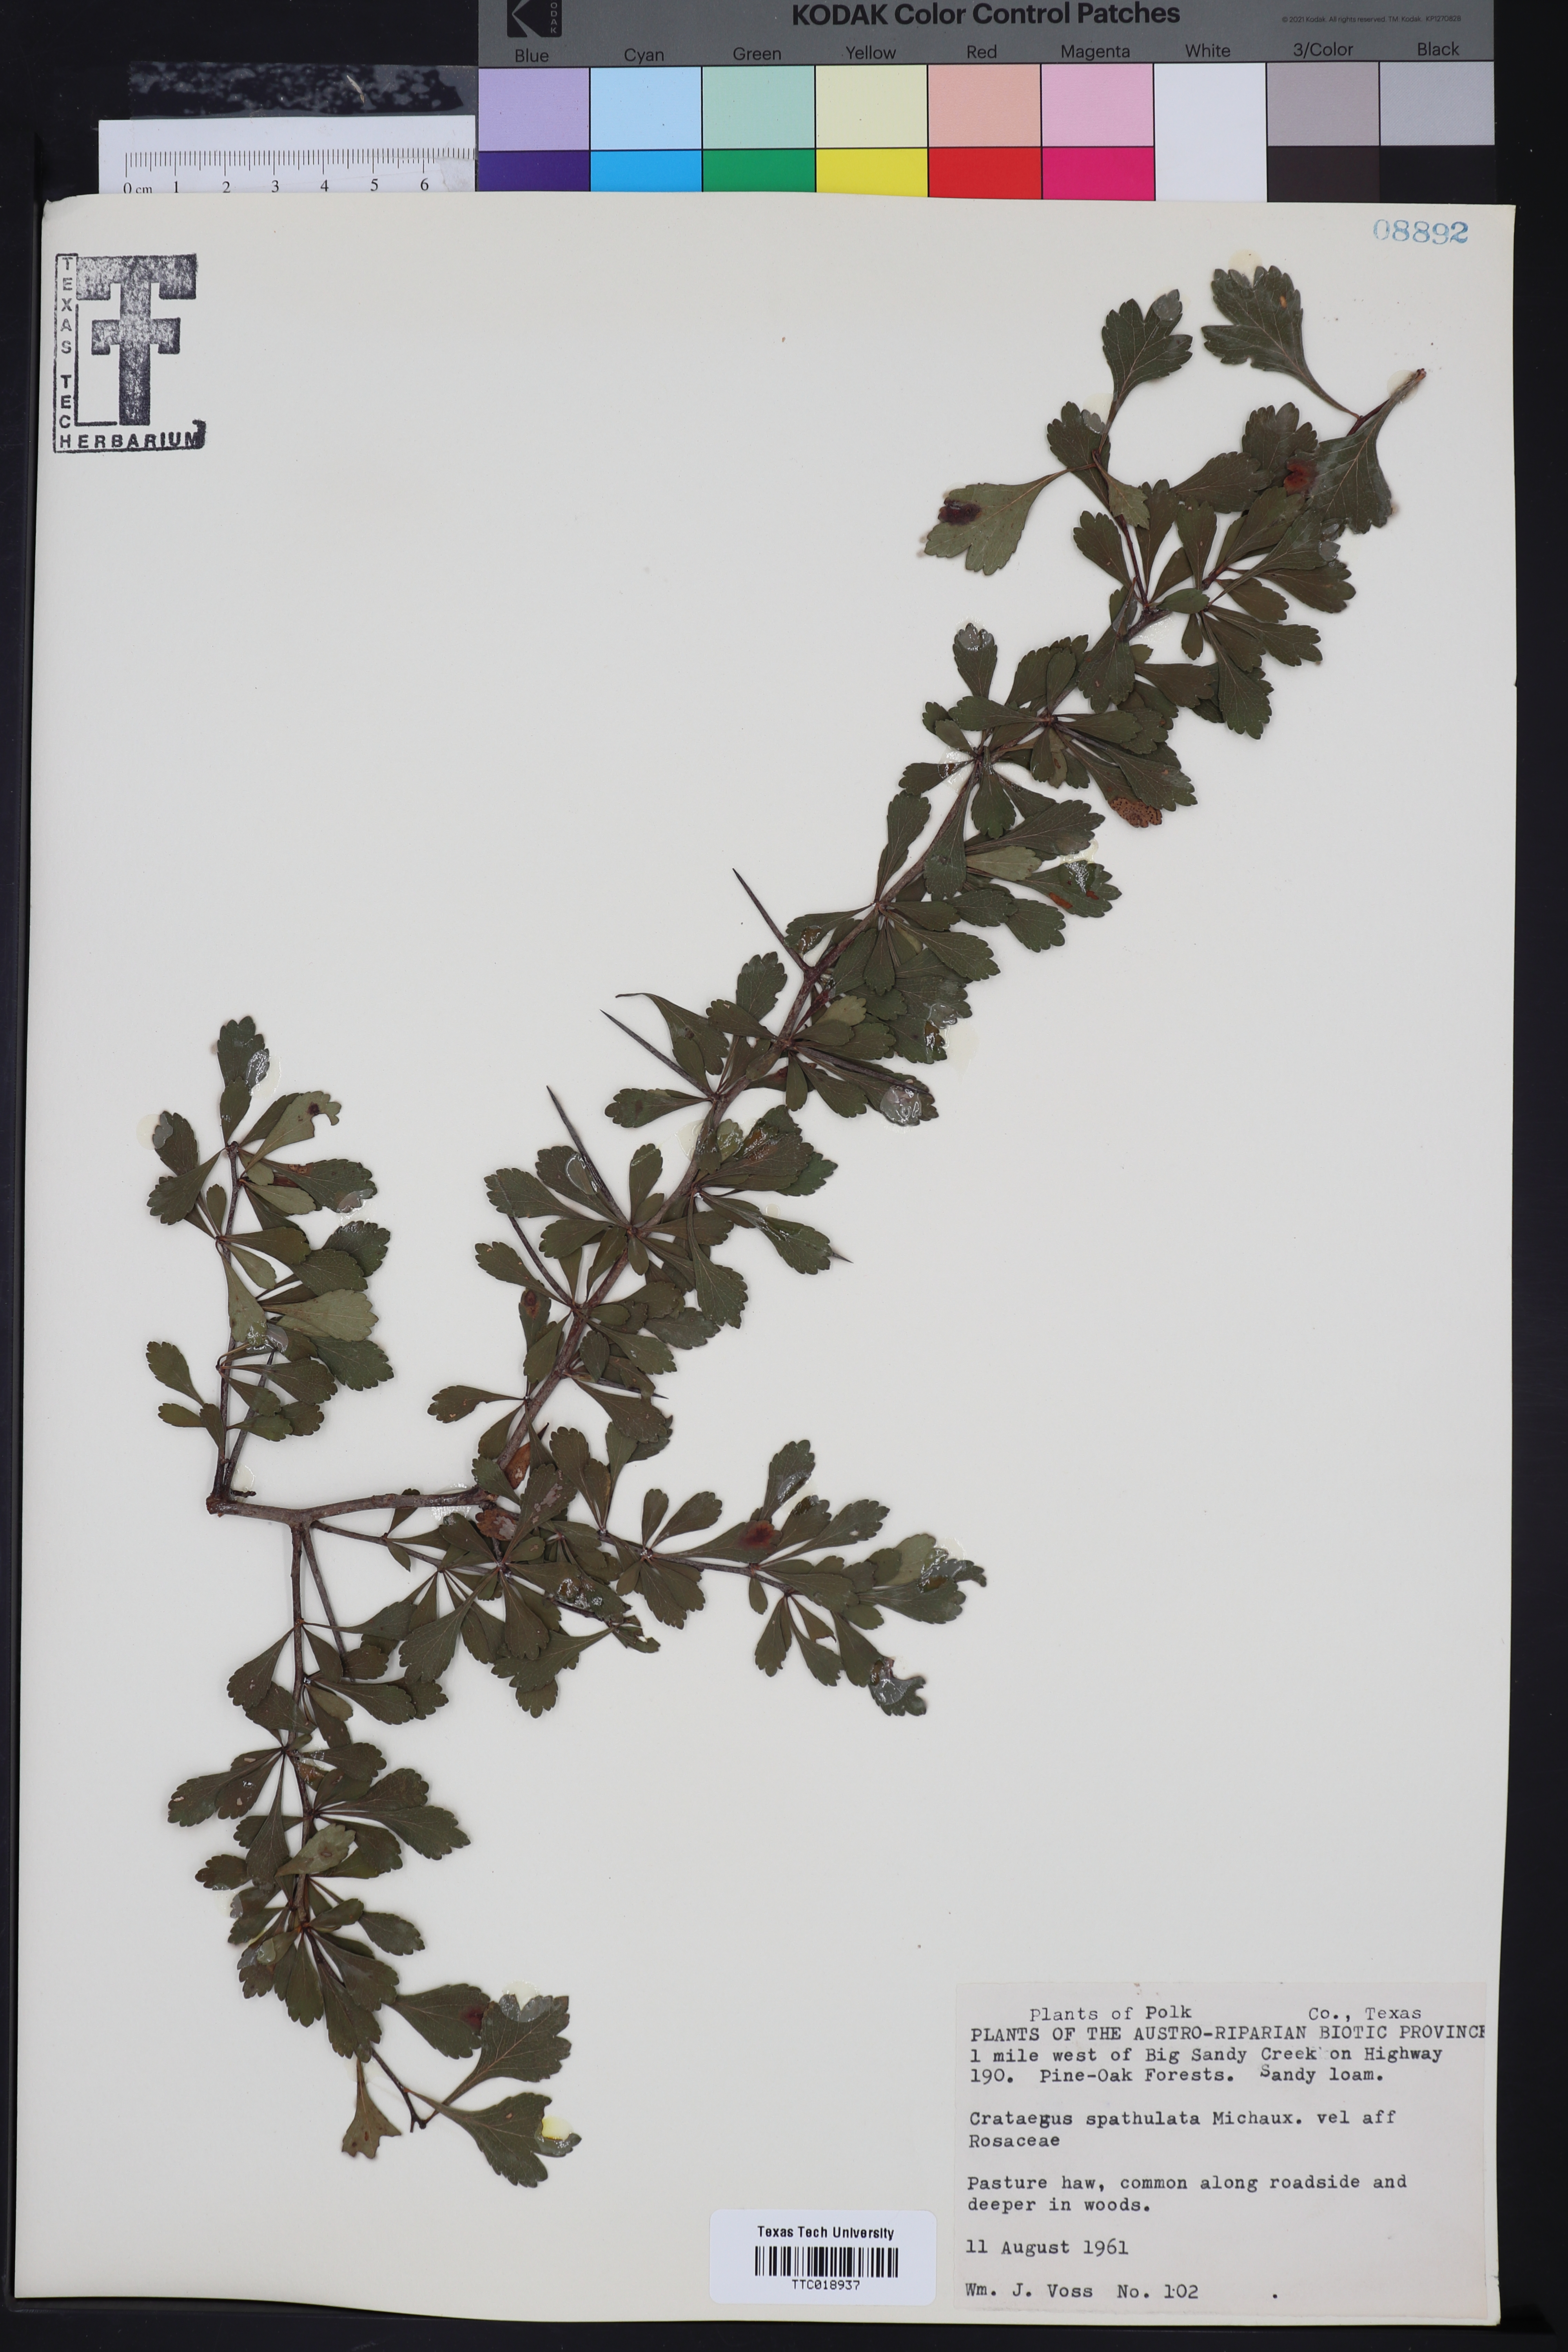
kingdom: Plantae
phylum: Tracheophyta
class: Magnoliopsida
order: Rosales
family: Rosaceae
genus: Crataegus
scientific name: Crataegus spathulata
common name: Littlehip hawthorn
